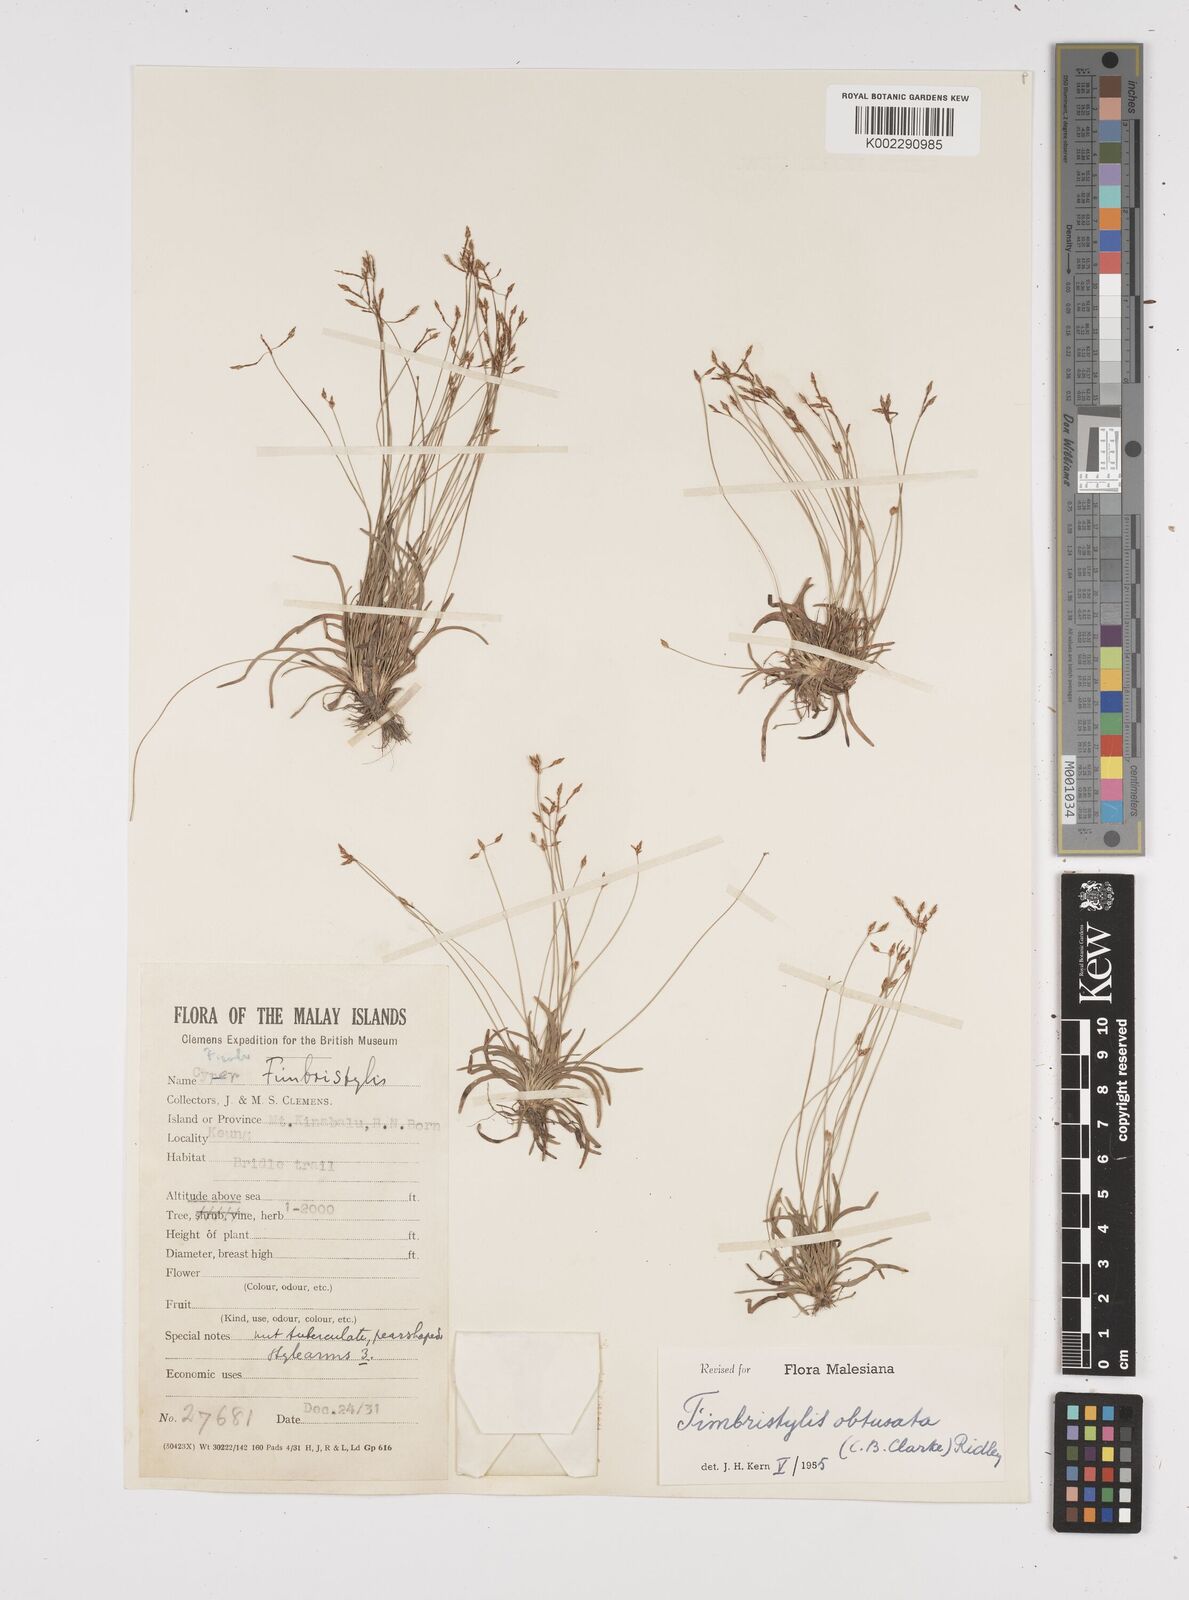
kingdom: Plantae
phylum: Tracheophyta
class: Liliopsida
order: Poales
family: Cyperaceae
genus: Fimbristylis
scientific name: Fimbristylis obtusata
